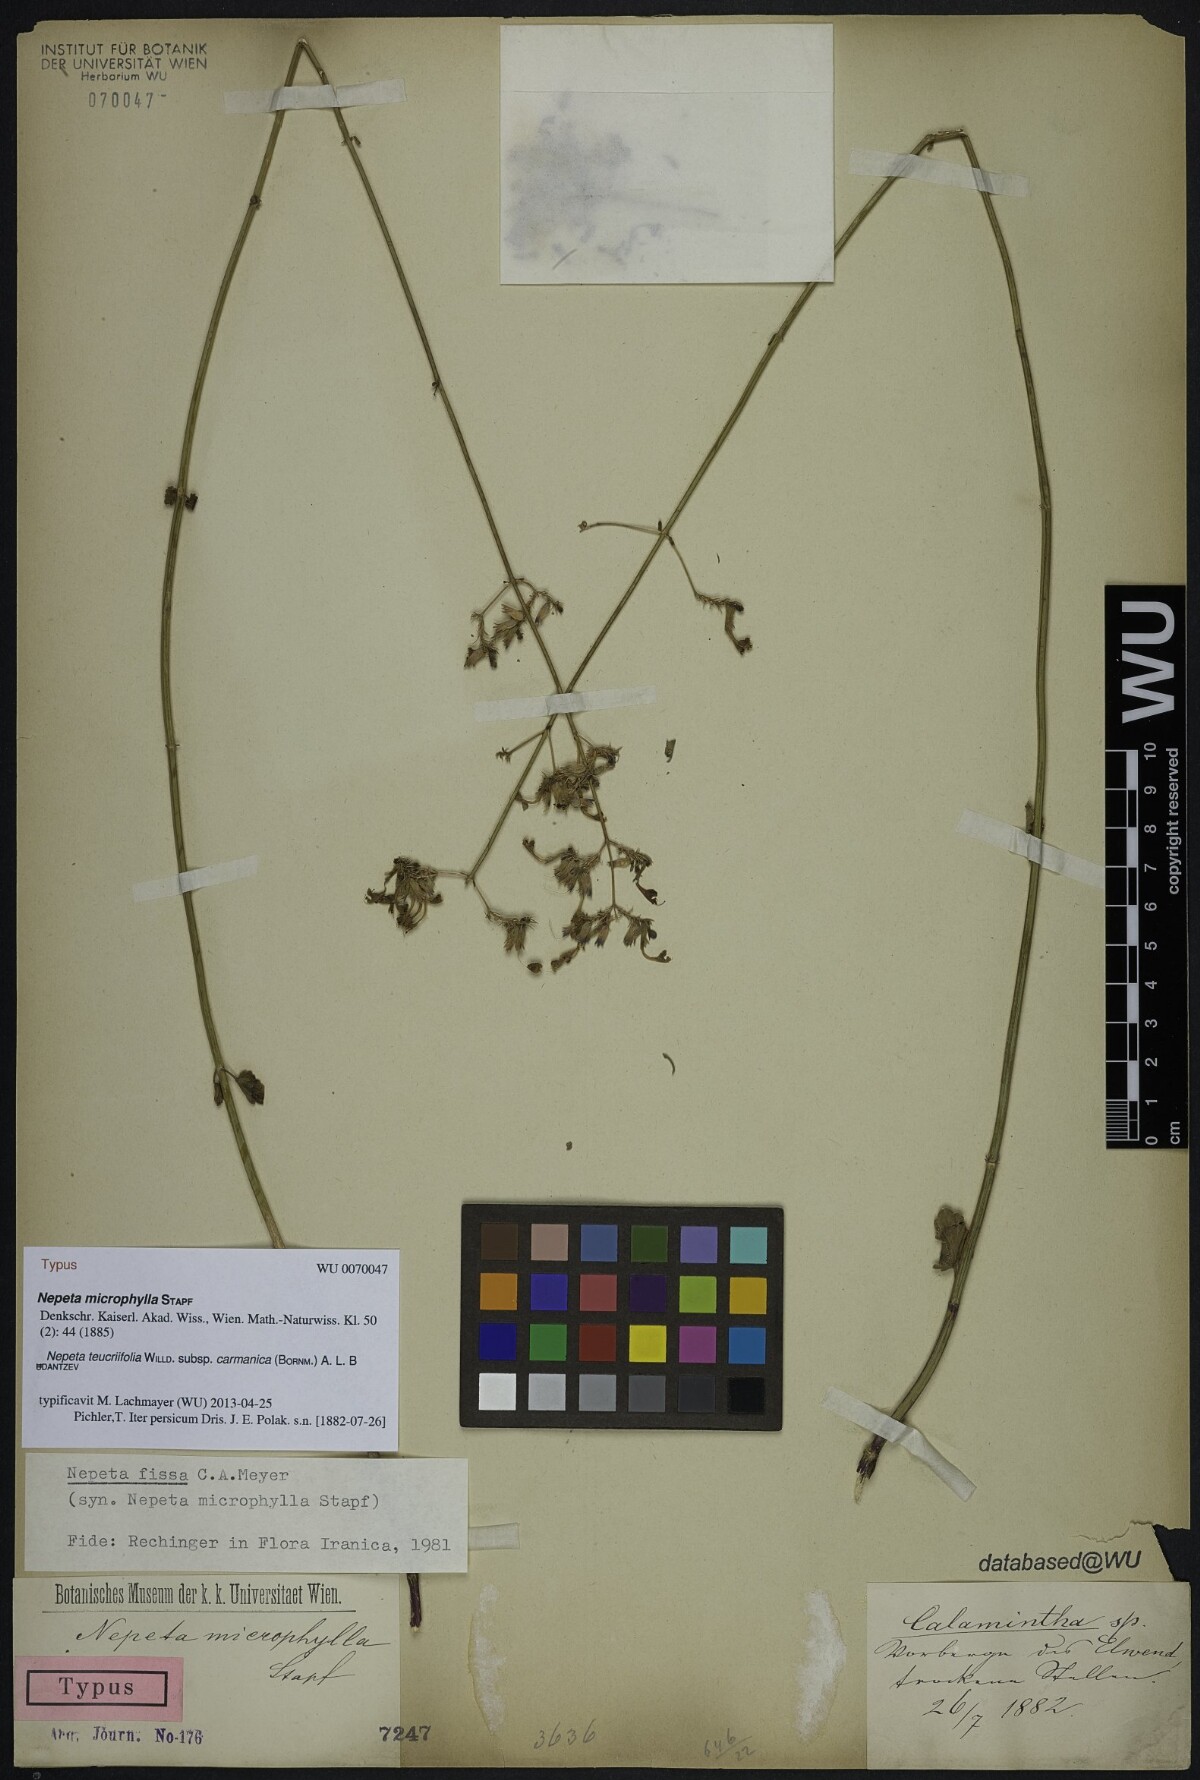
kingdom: Plantae
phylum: Tracheophyta
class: Magnoliopsida
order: Lamiales
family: Lamiaceae
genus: Nepeta
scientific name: Nepeta teucriifolia
